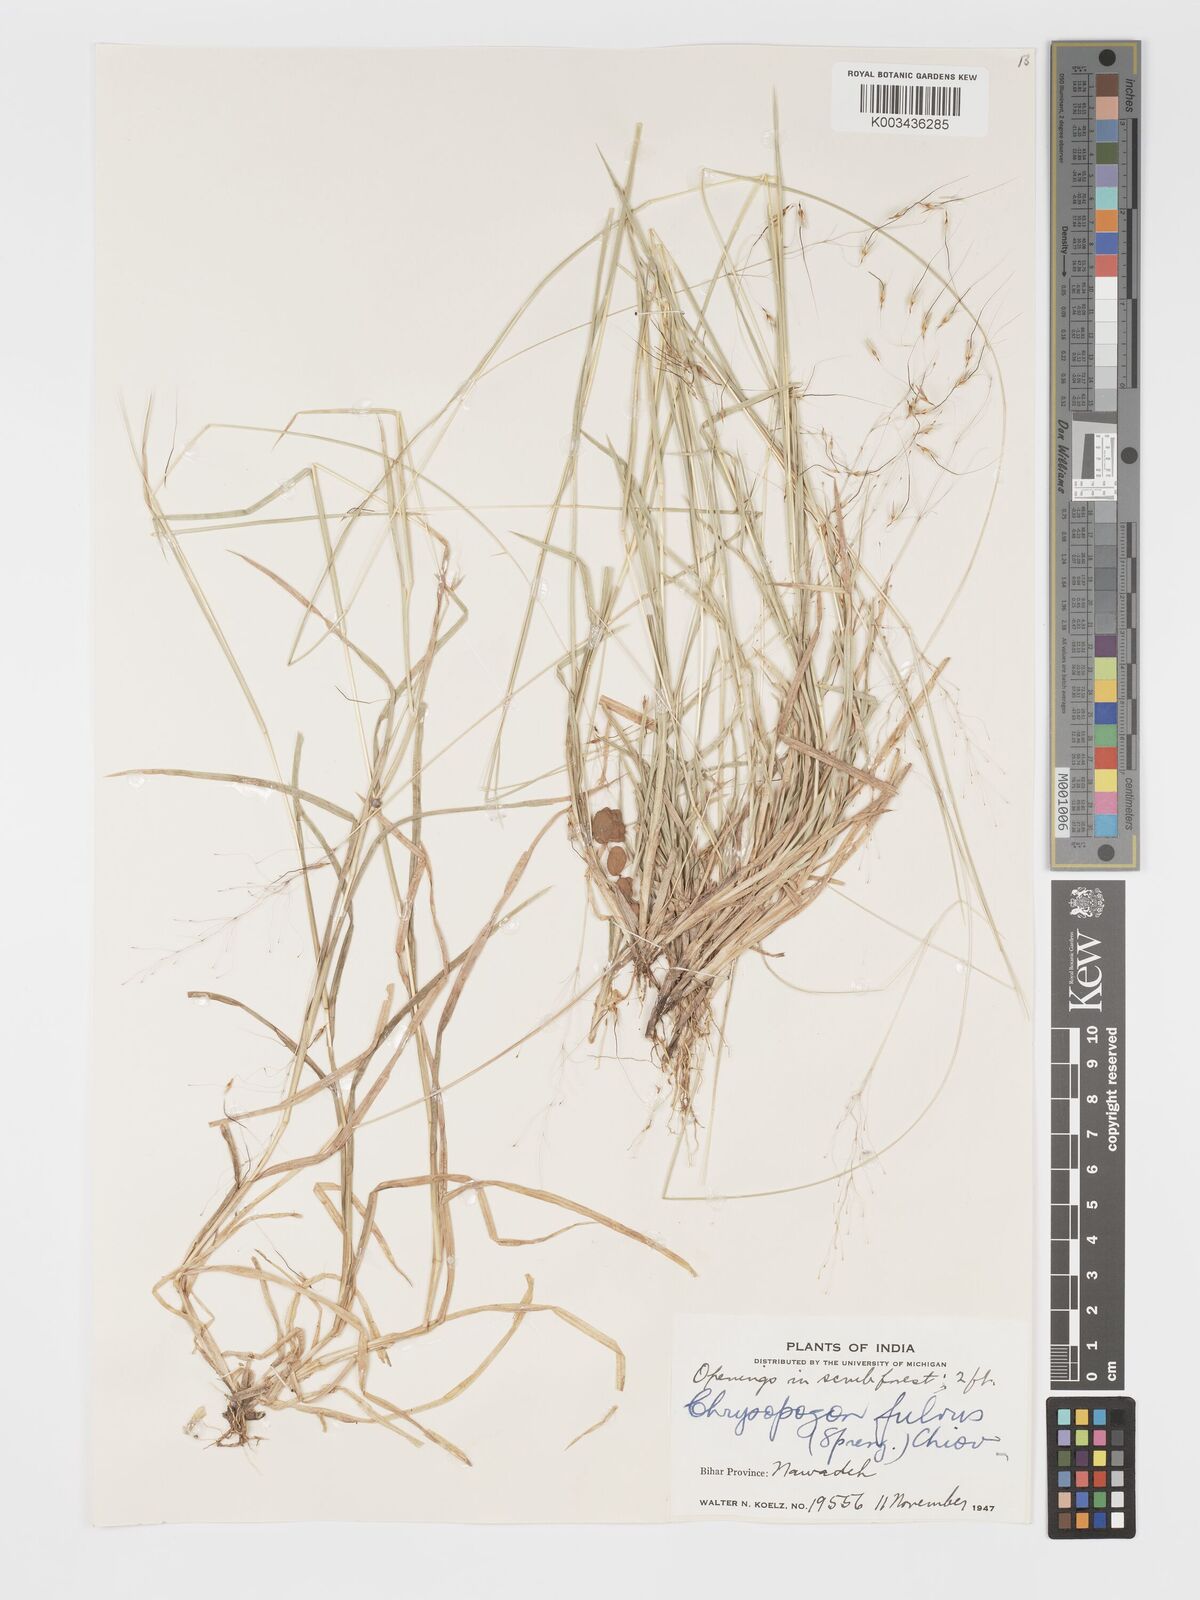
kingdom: Plantae
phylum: Tracheophyta
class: Liliopsida
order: Poales
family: Poaceae
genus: Chrysopogon
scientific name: Chrysopogon fulvus
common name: Red false beardgrass
